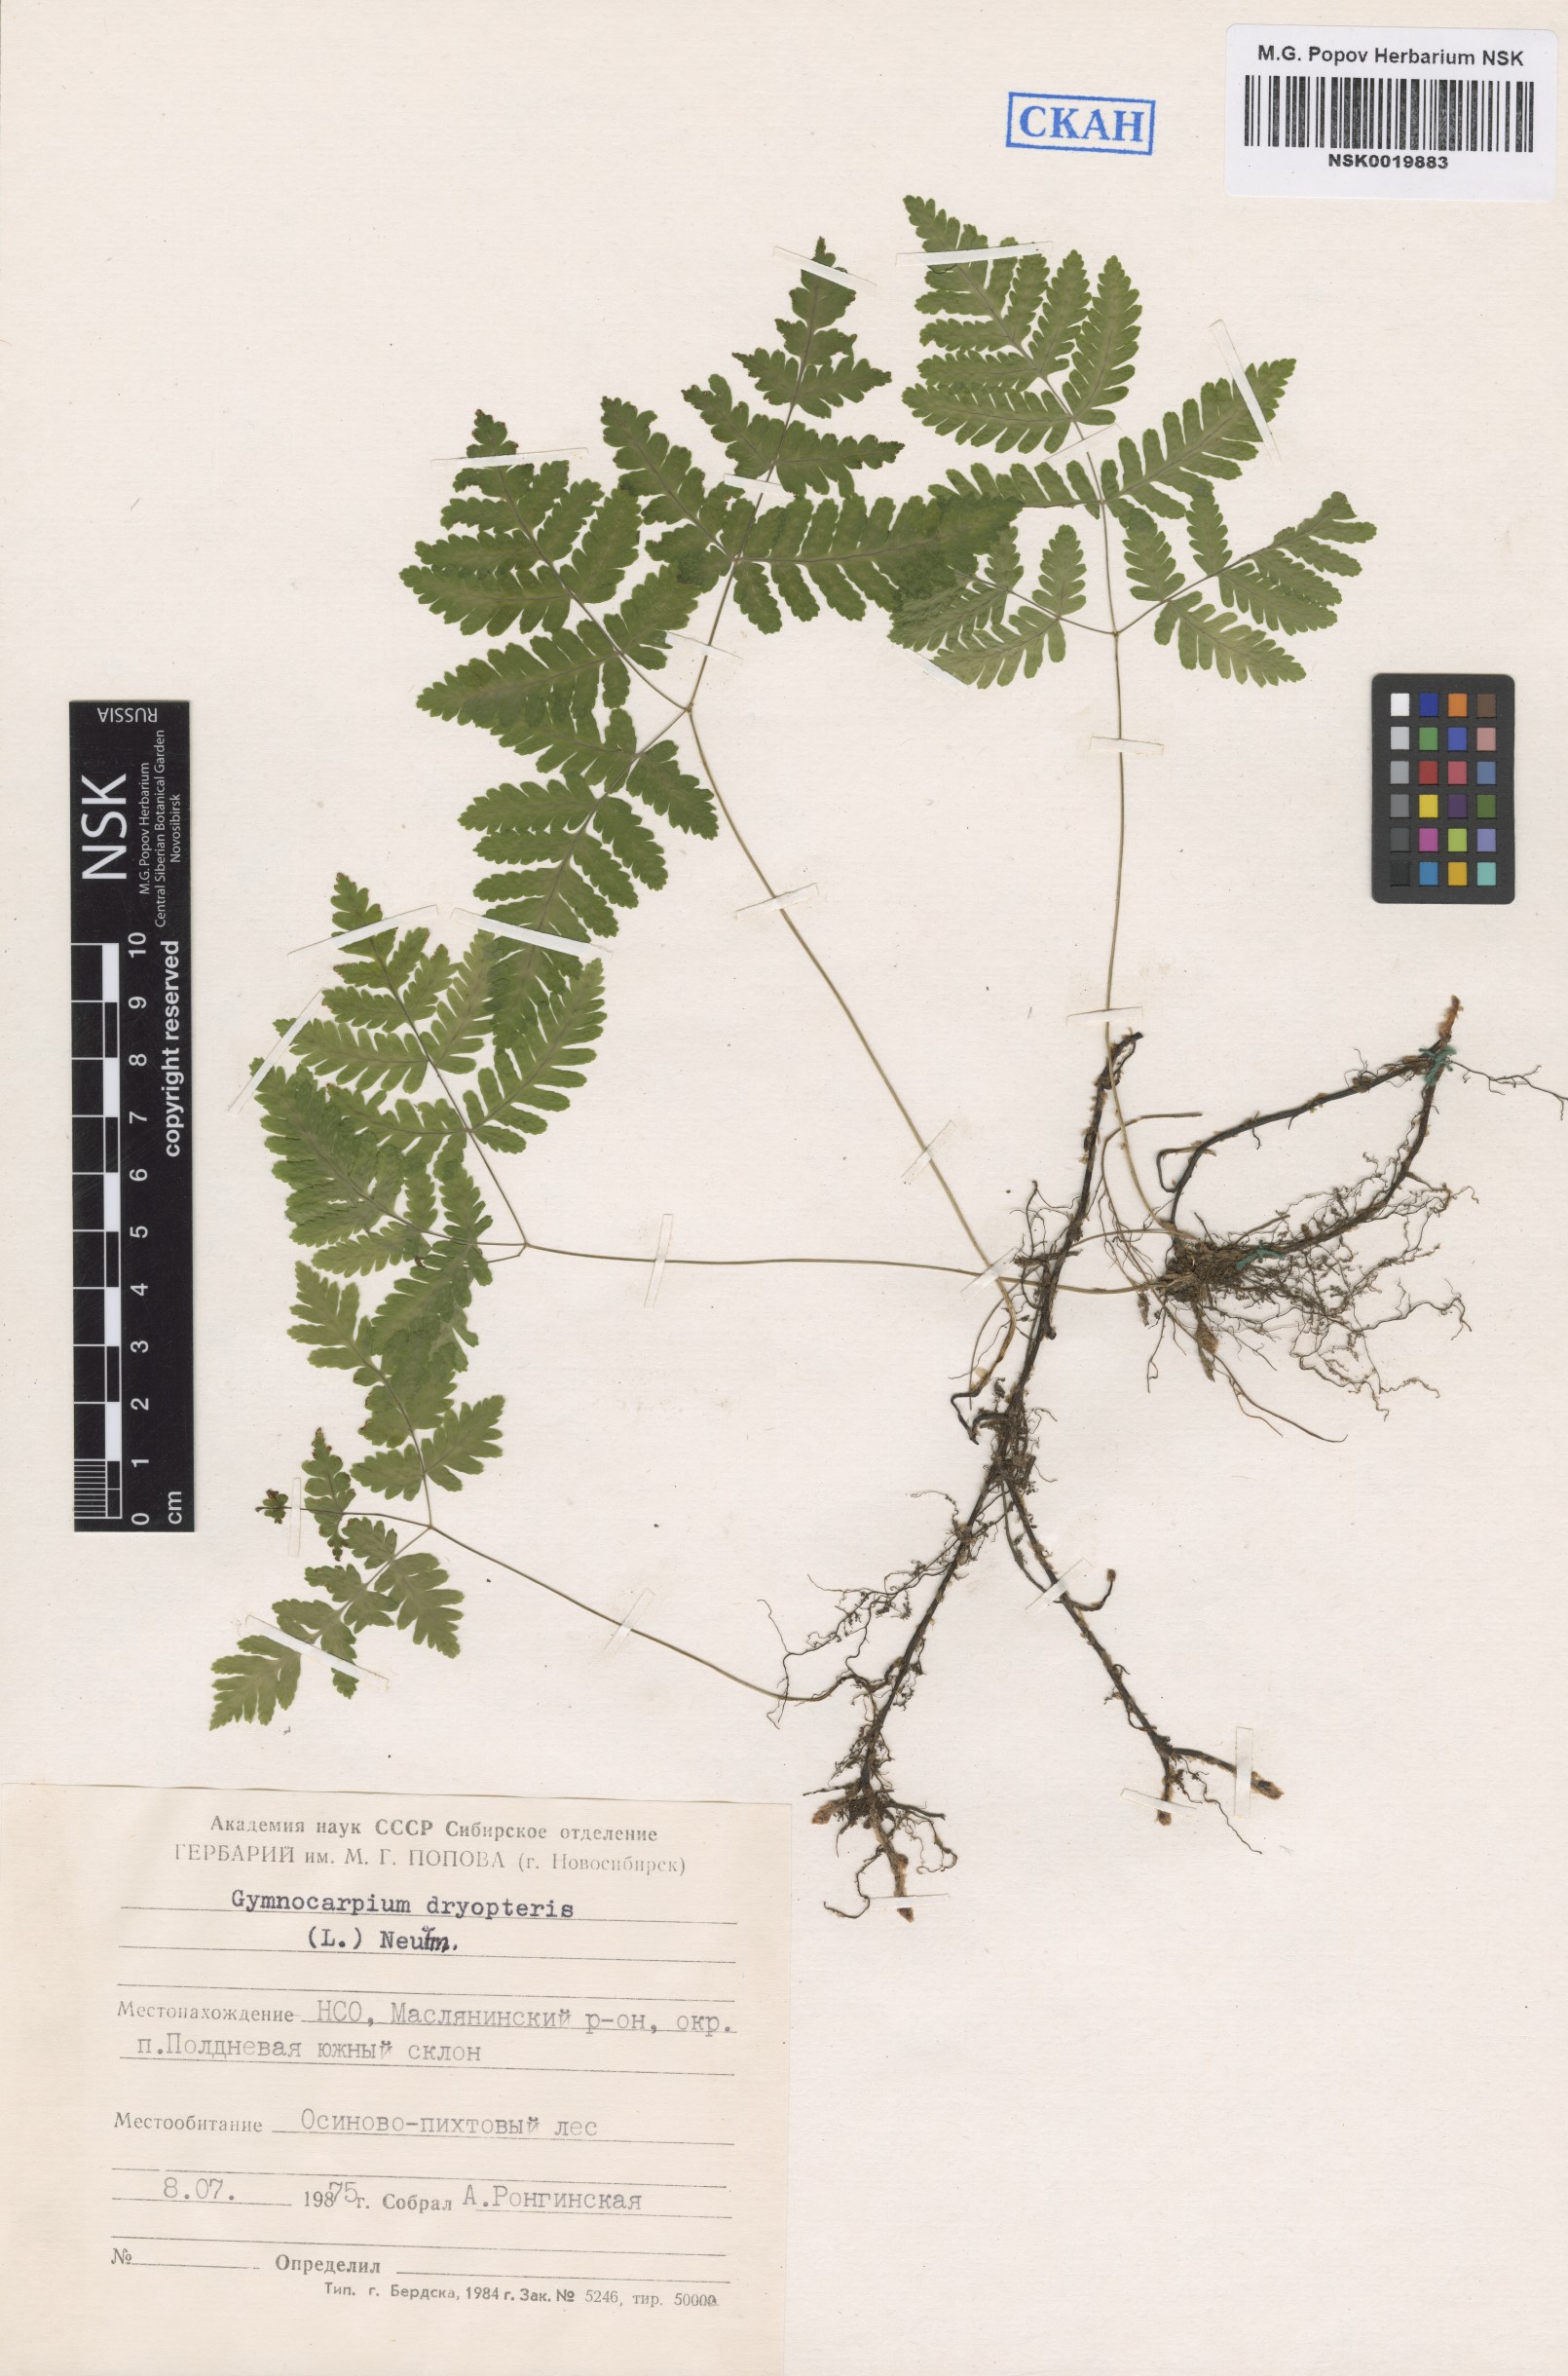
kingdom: Plantae
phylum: Tracheophyta
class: Polypodiopsida
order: Polypodiales
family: Cystopteridaceae
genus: Gymnocarpium
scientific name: Gymnocarpium dryopteris
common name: Oak fern
